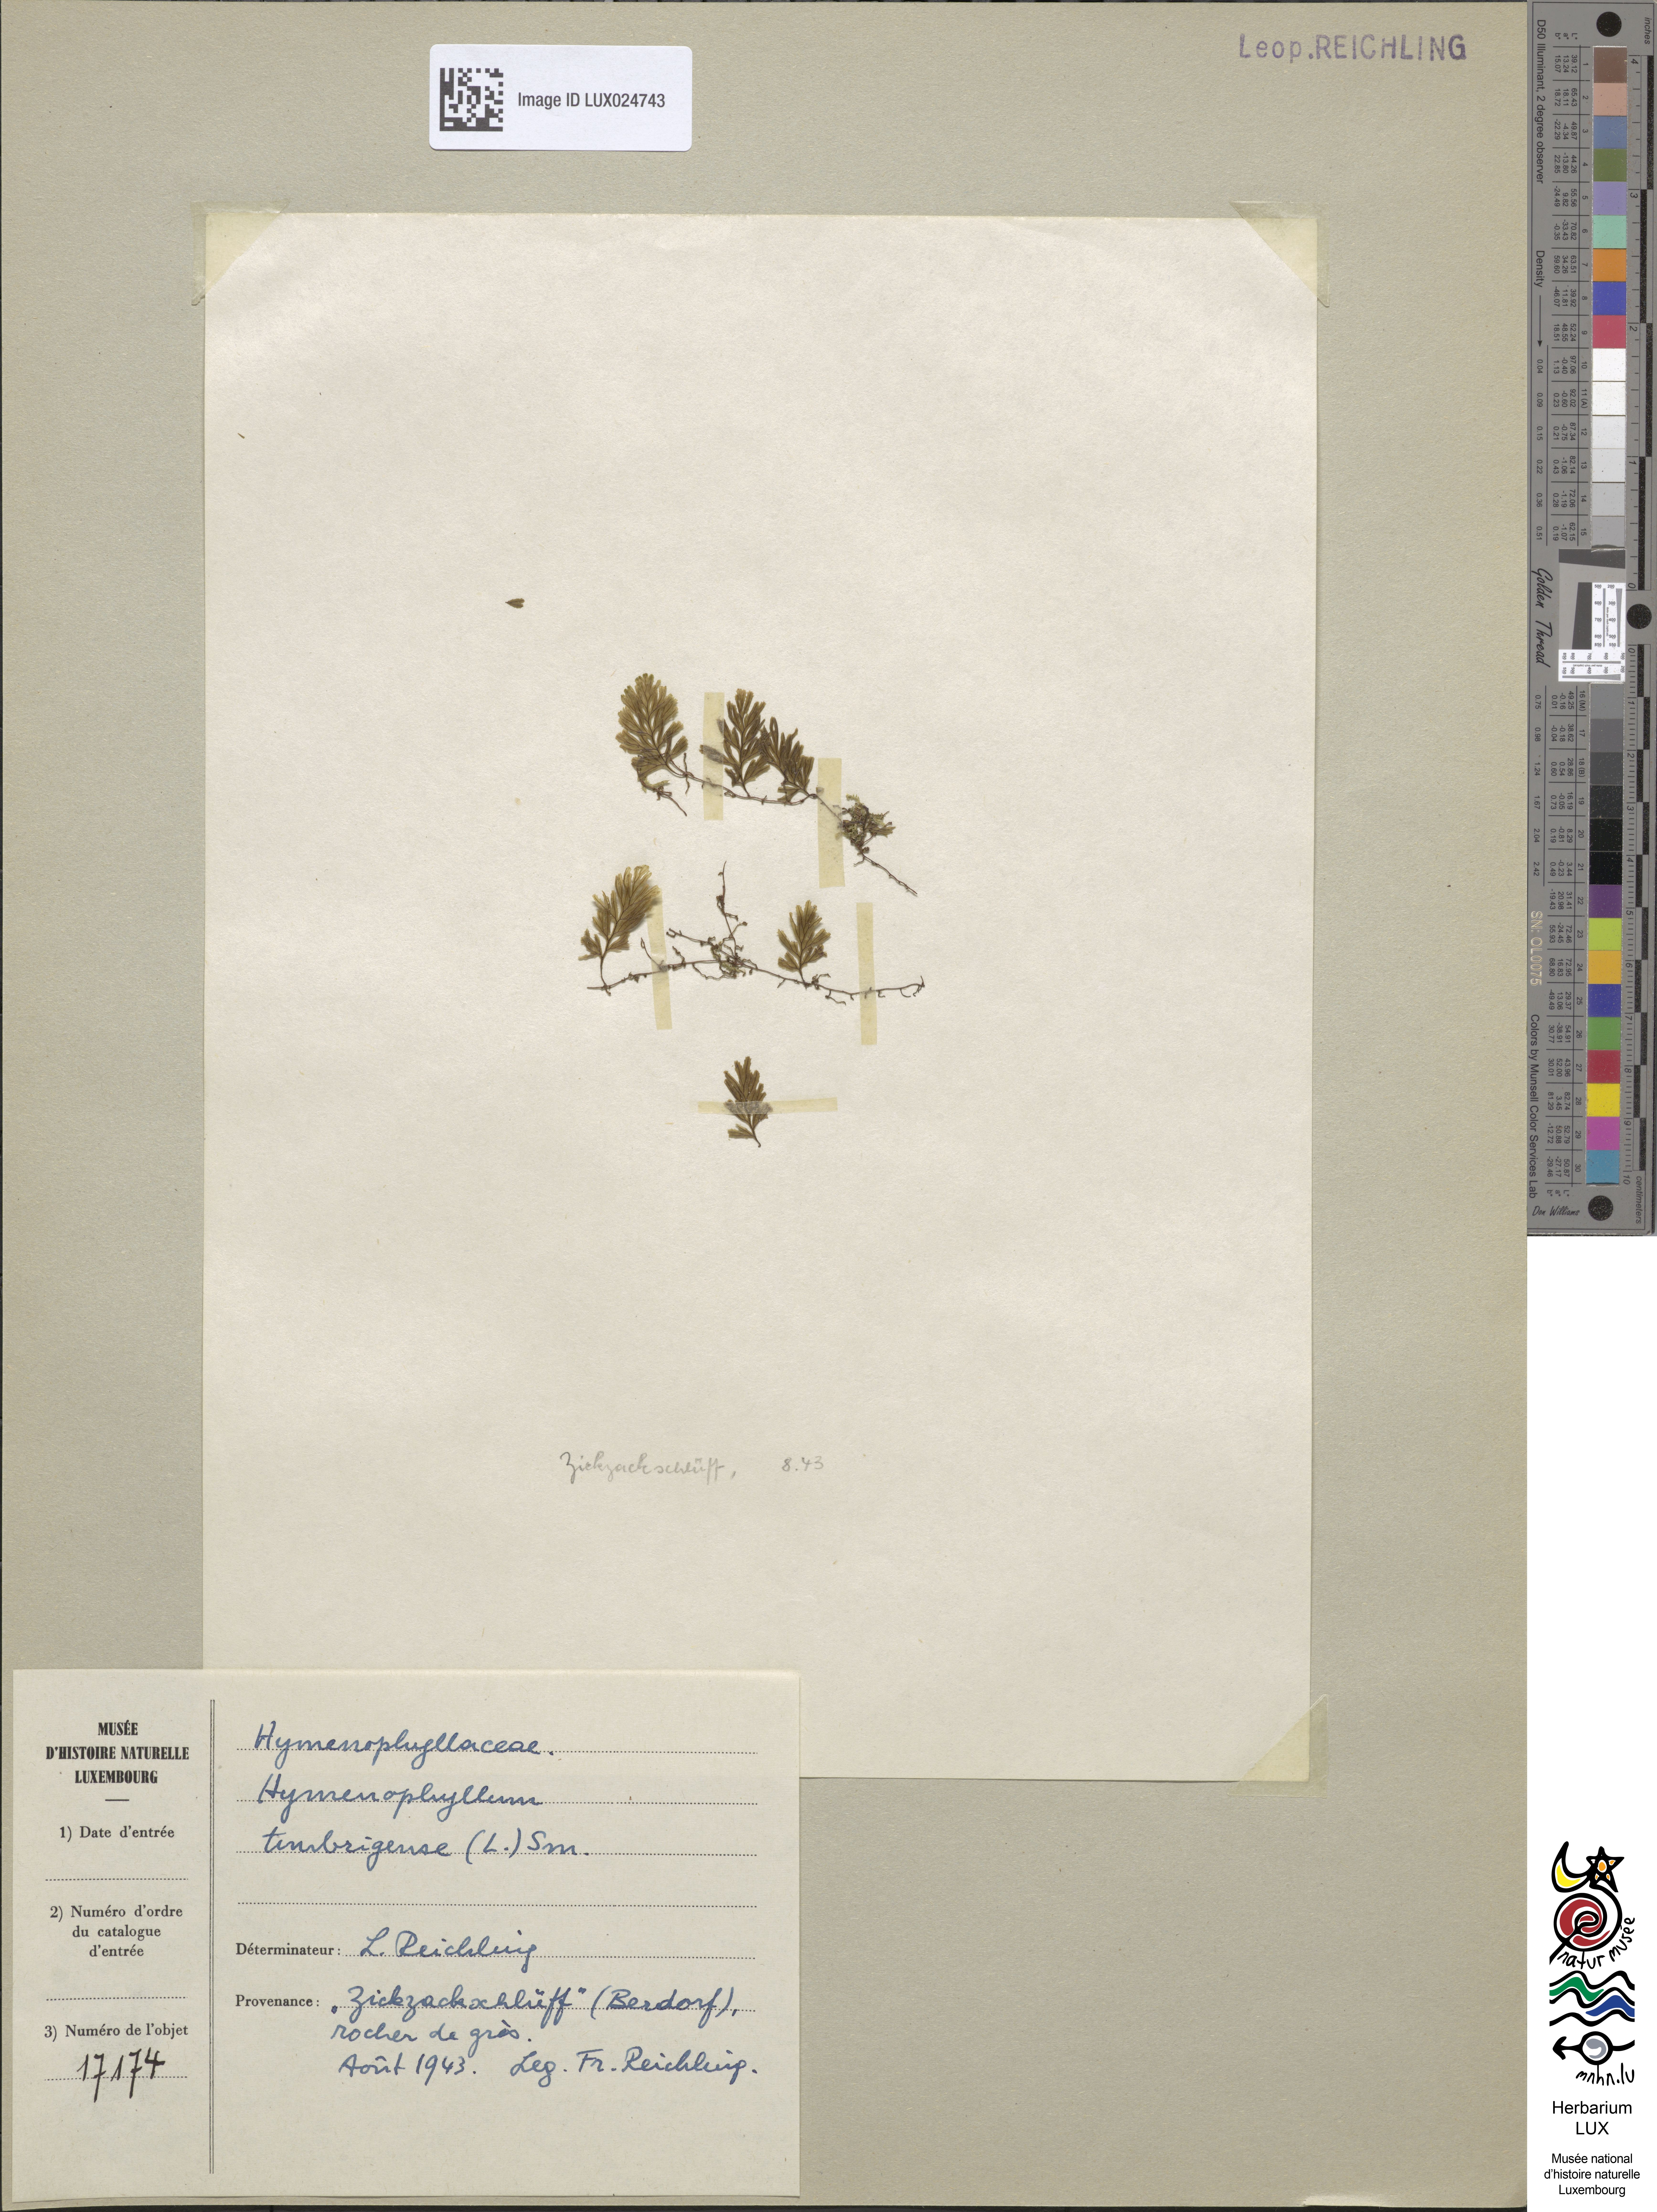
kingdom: Plantae
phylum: Tracheophyta
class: Polypodiopsida
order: Hymenophyllales
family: Hymenophyllaceae
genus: Hymenophyllum
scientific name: Hymenophyllum tunbrigense
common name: Tunbridge filmy fern
